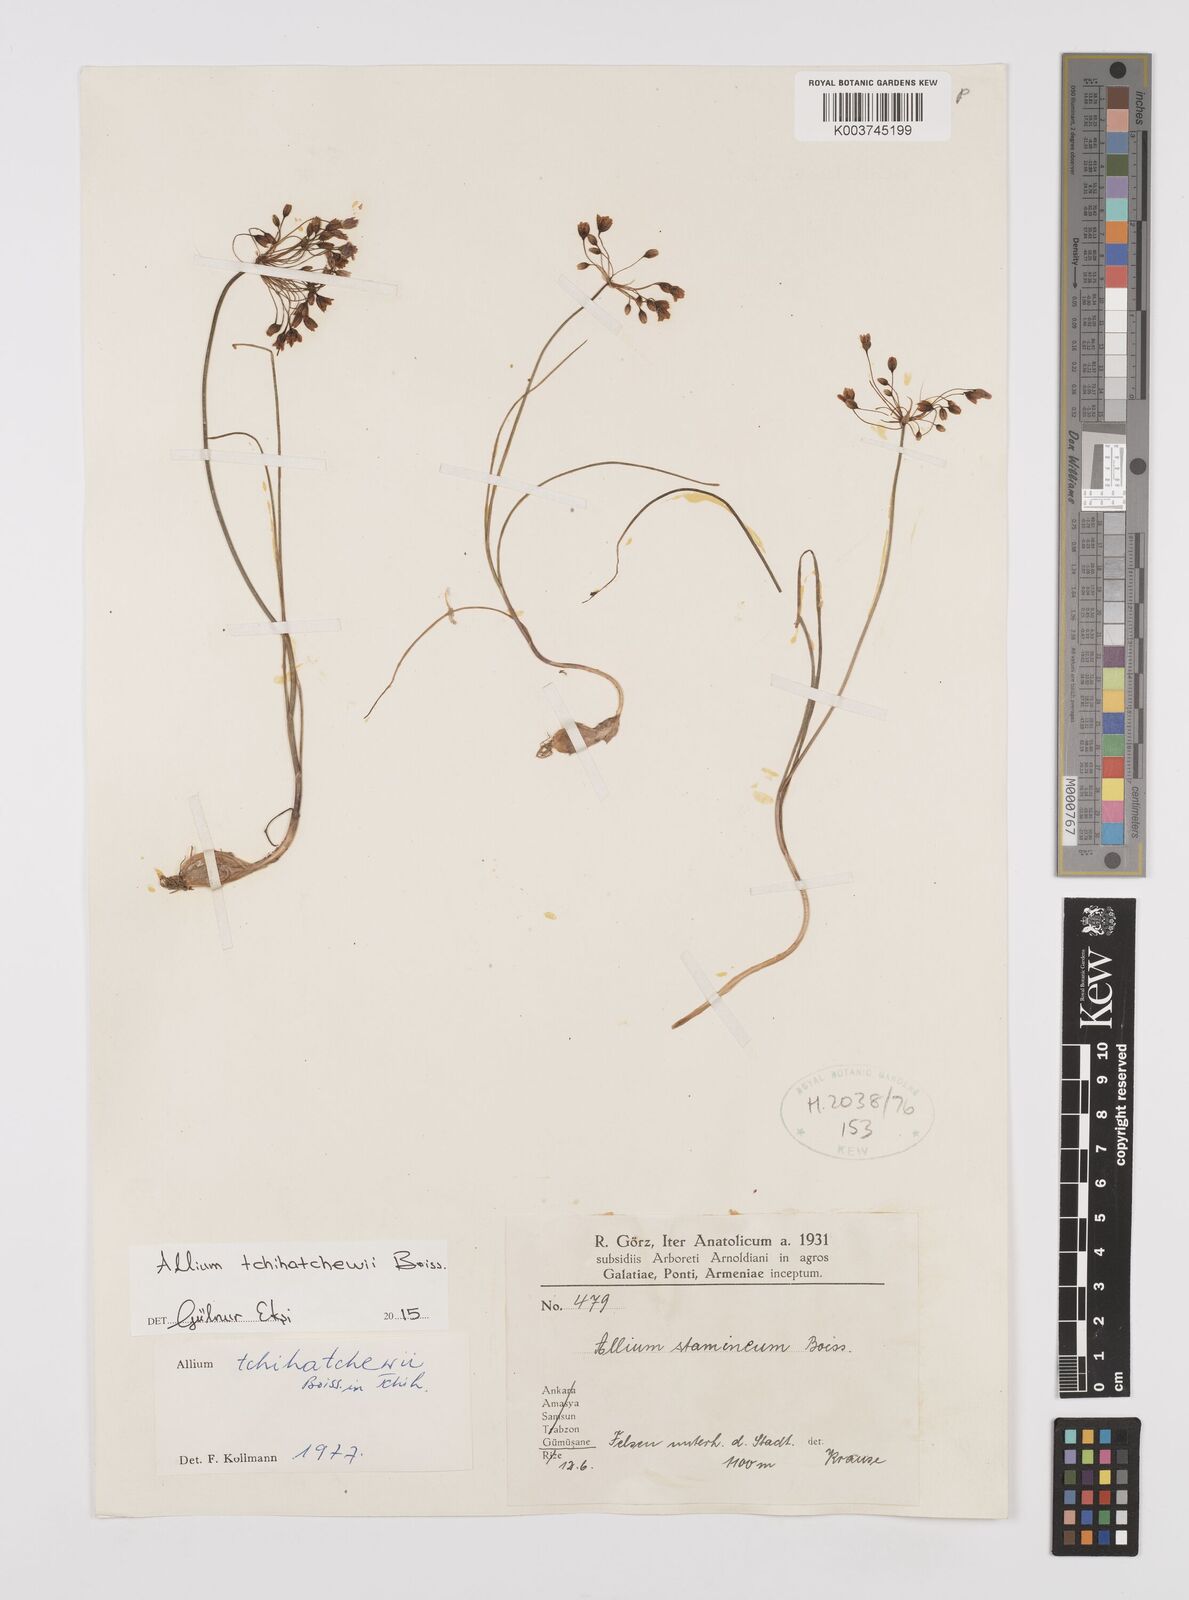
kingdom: Plantae
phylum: Tracheophyta
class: Liliopsida
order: Asparagales
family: Amaryllidaceae
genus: Allium
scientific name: Allium tchihatschewii
